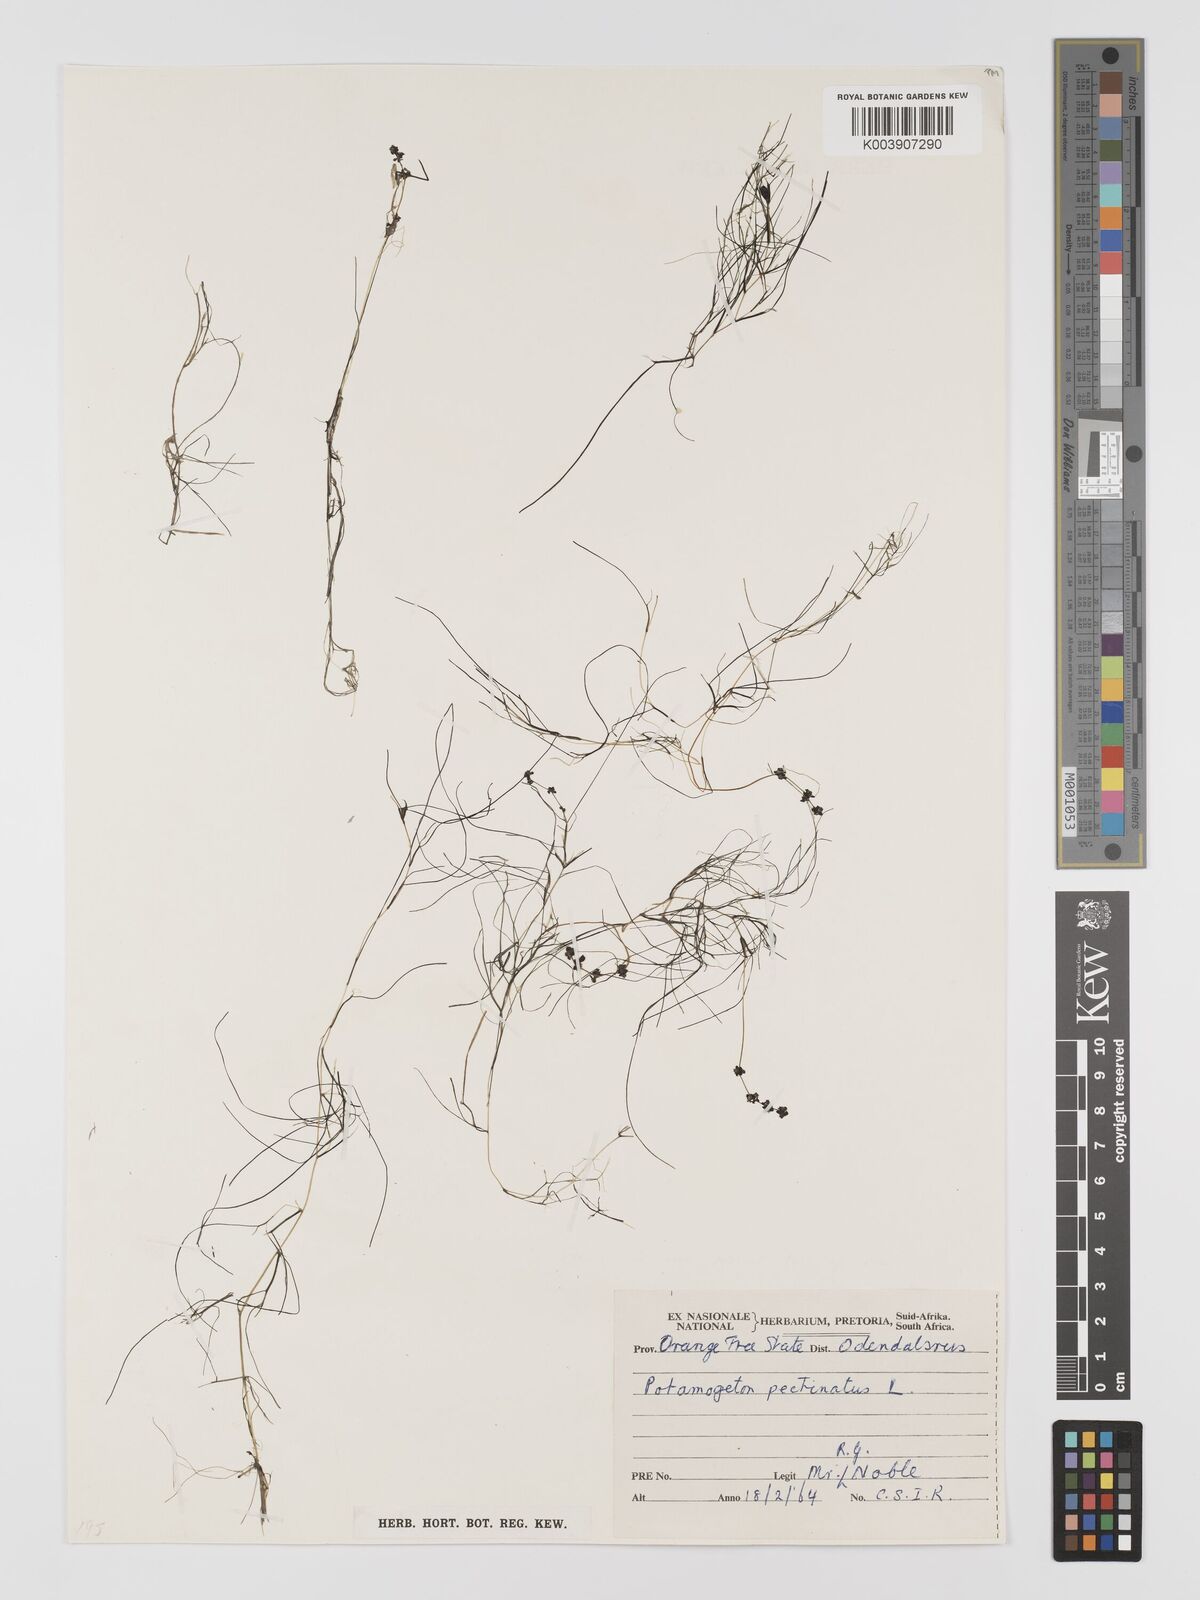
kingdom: Plantae
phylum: Tracheophyta
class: Liliopsida
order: Alismatales
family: Potamogetonaceae
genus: Stuckenia
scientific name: Stuckenia pectinata
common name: Sago pondweed
